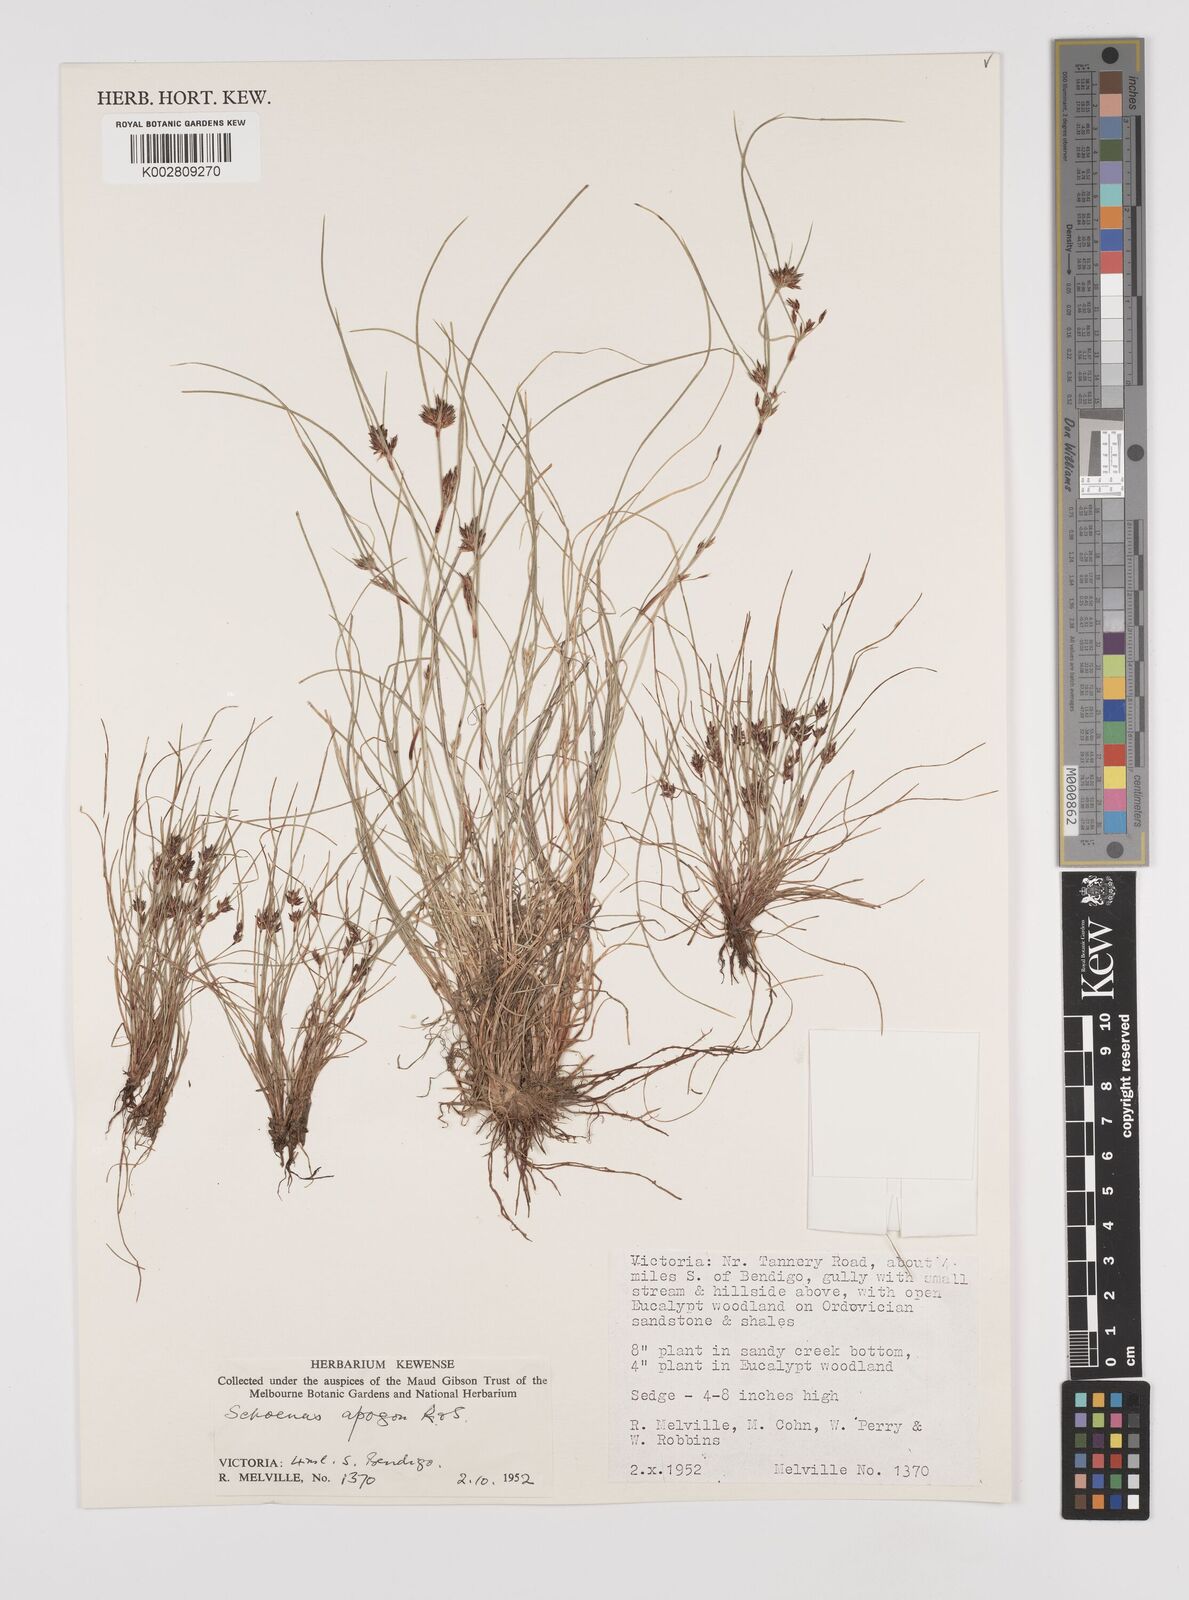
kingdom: Plantae
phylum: Tracheophyta
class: Liliopsida
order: Poales
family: Cyperaceae
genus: Schoenus
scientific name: Schoenus apogon
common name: Smooth bogrush
